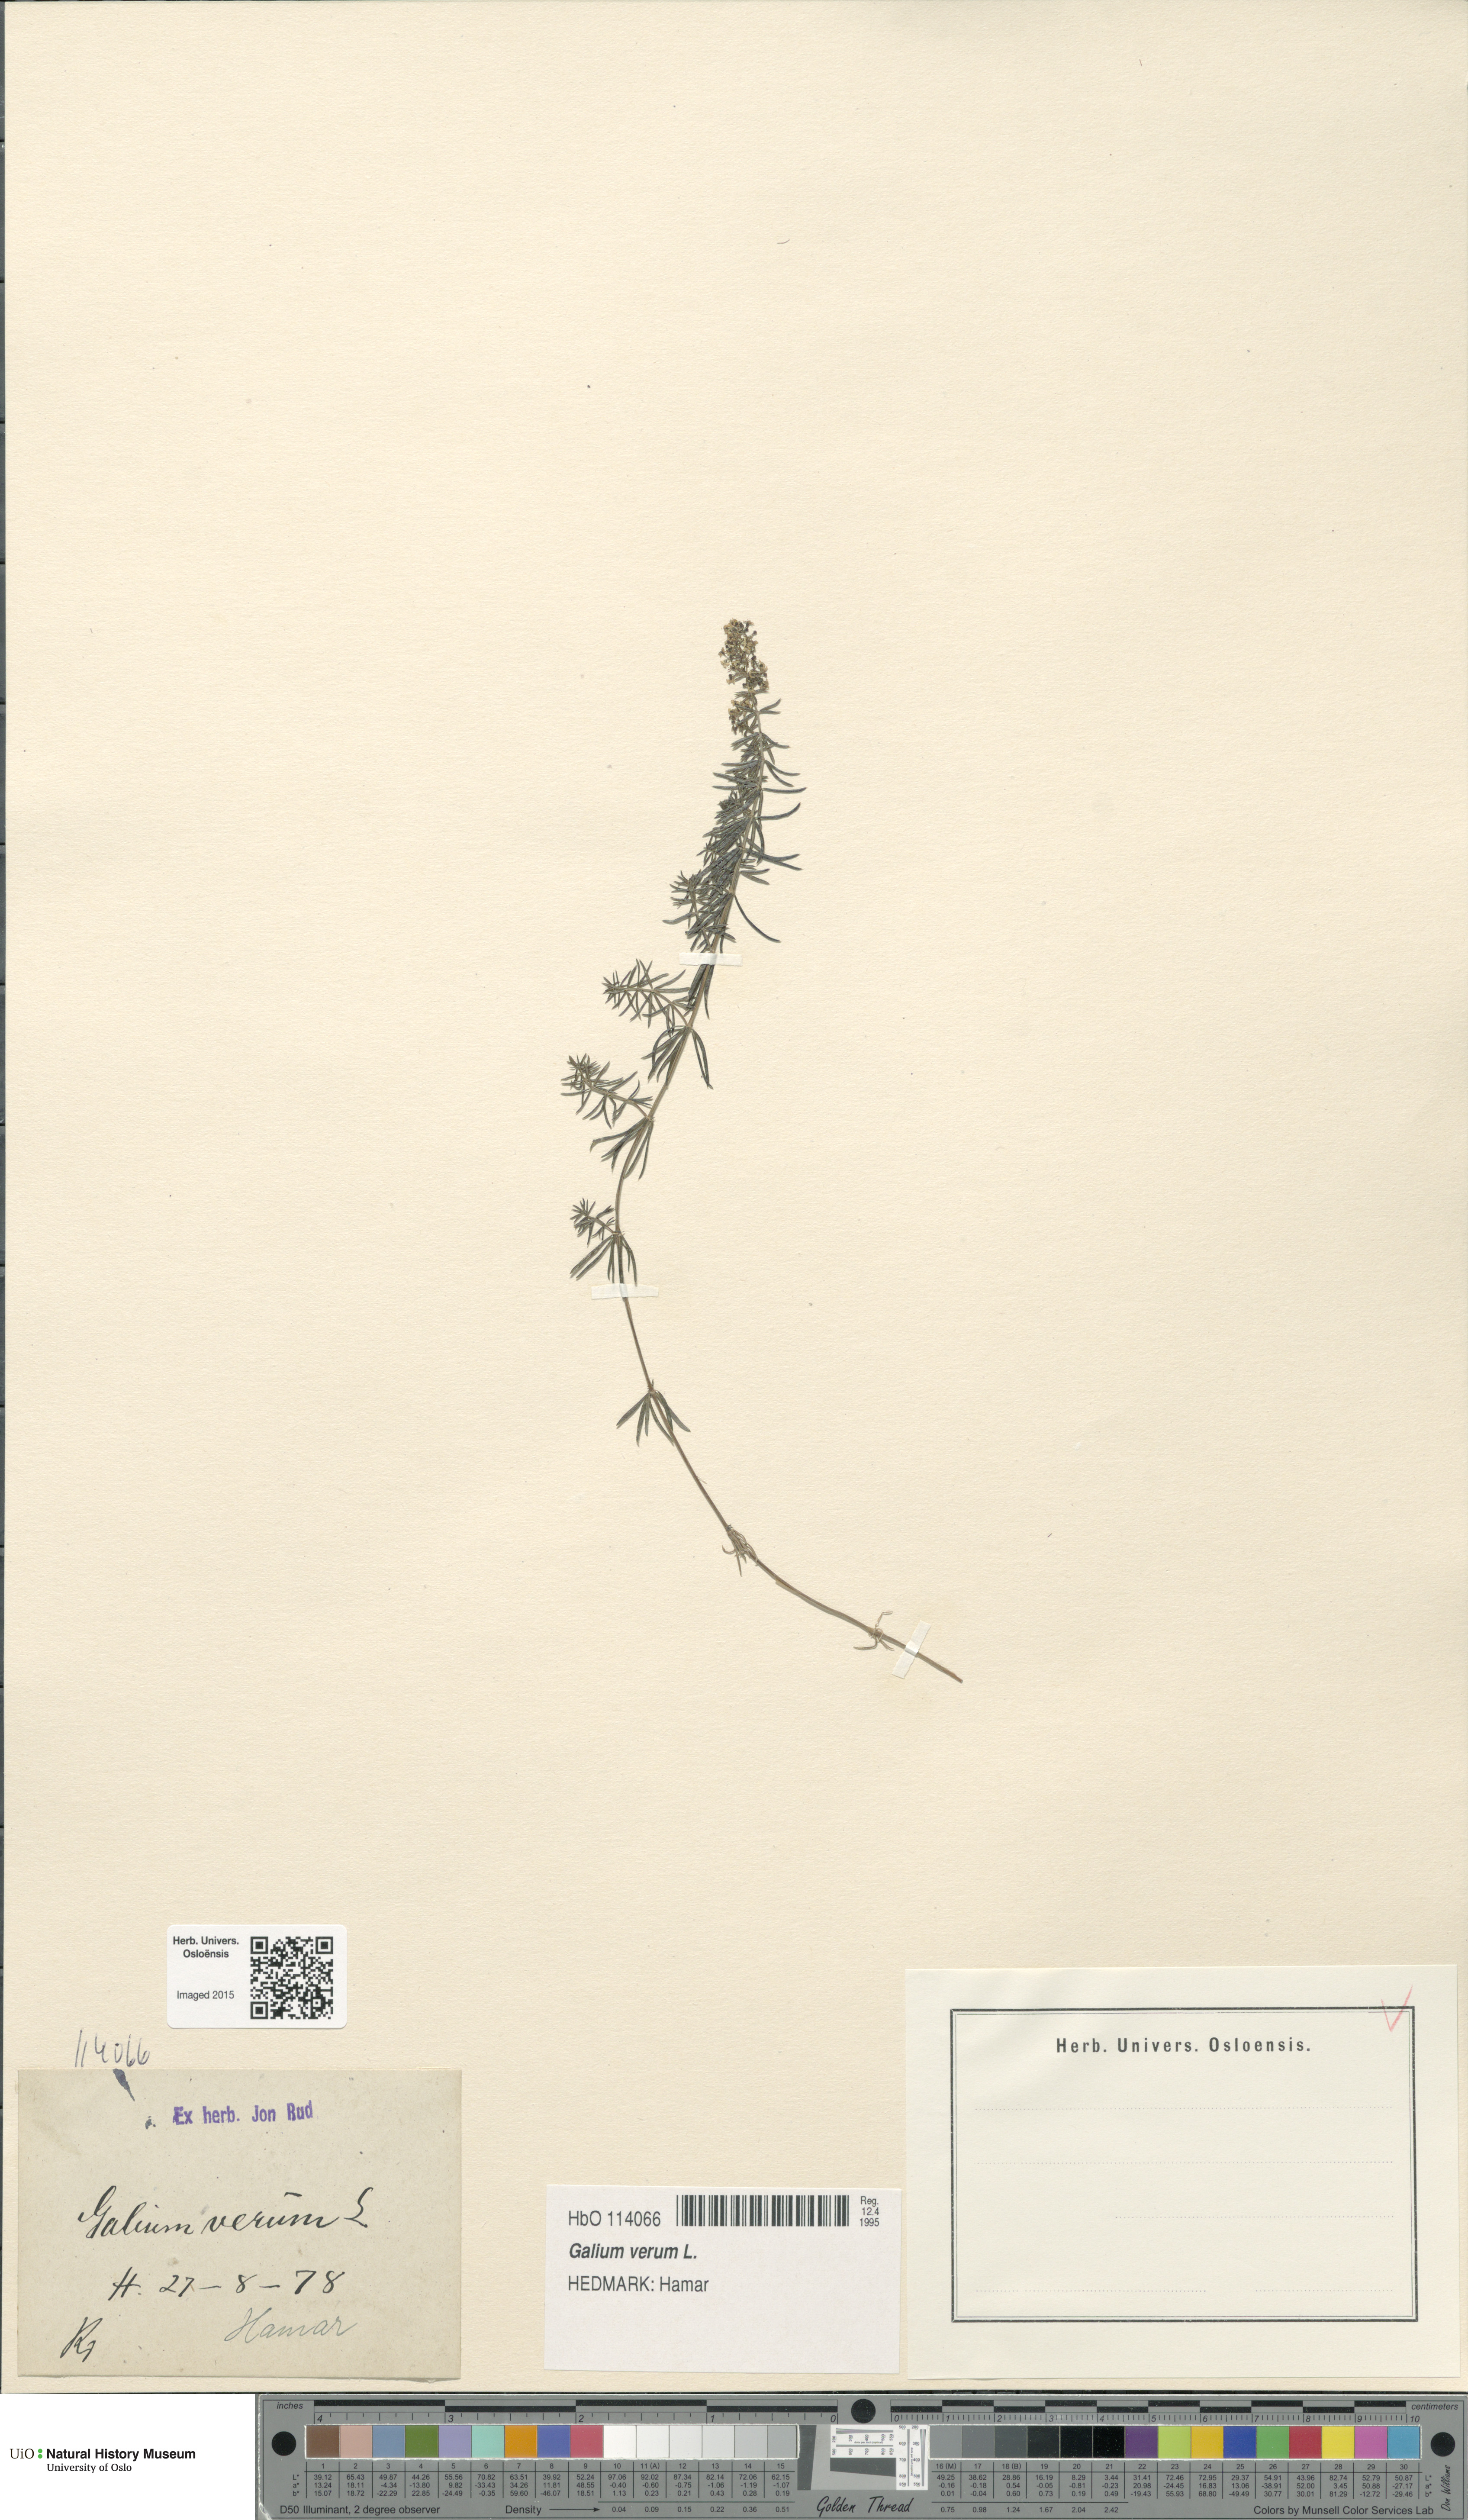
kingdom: Plantae
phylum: Tracheophyta
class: Magnoliopsida
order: Gentianales
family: Rubiaceae
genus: Galium
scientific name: Galium verum
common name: Lady's bedstraw
